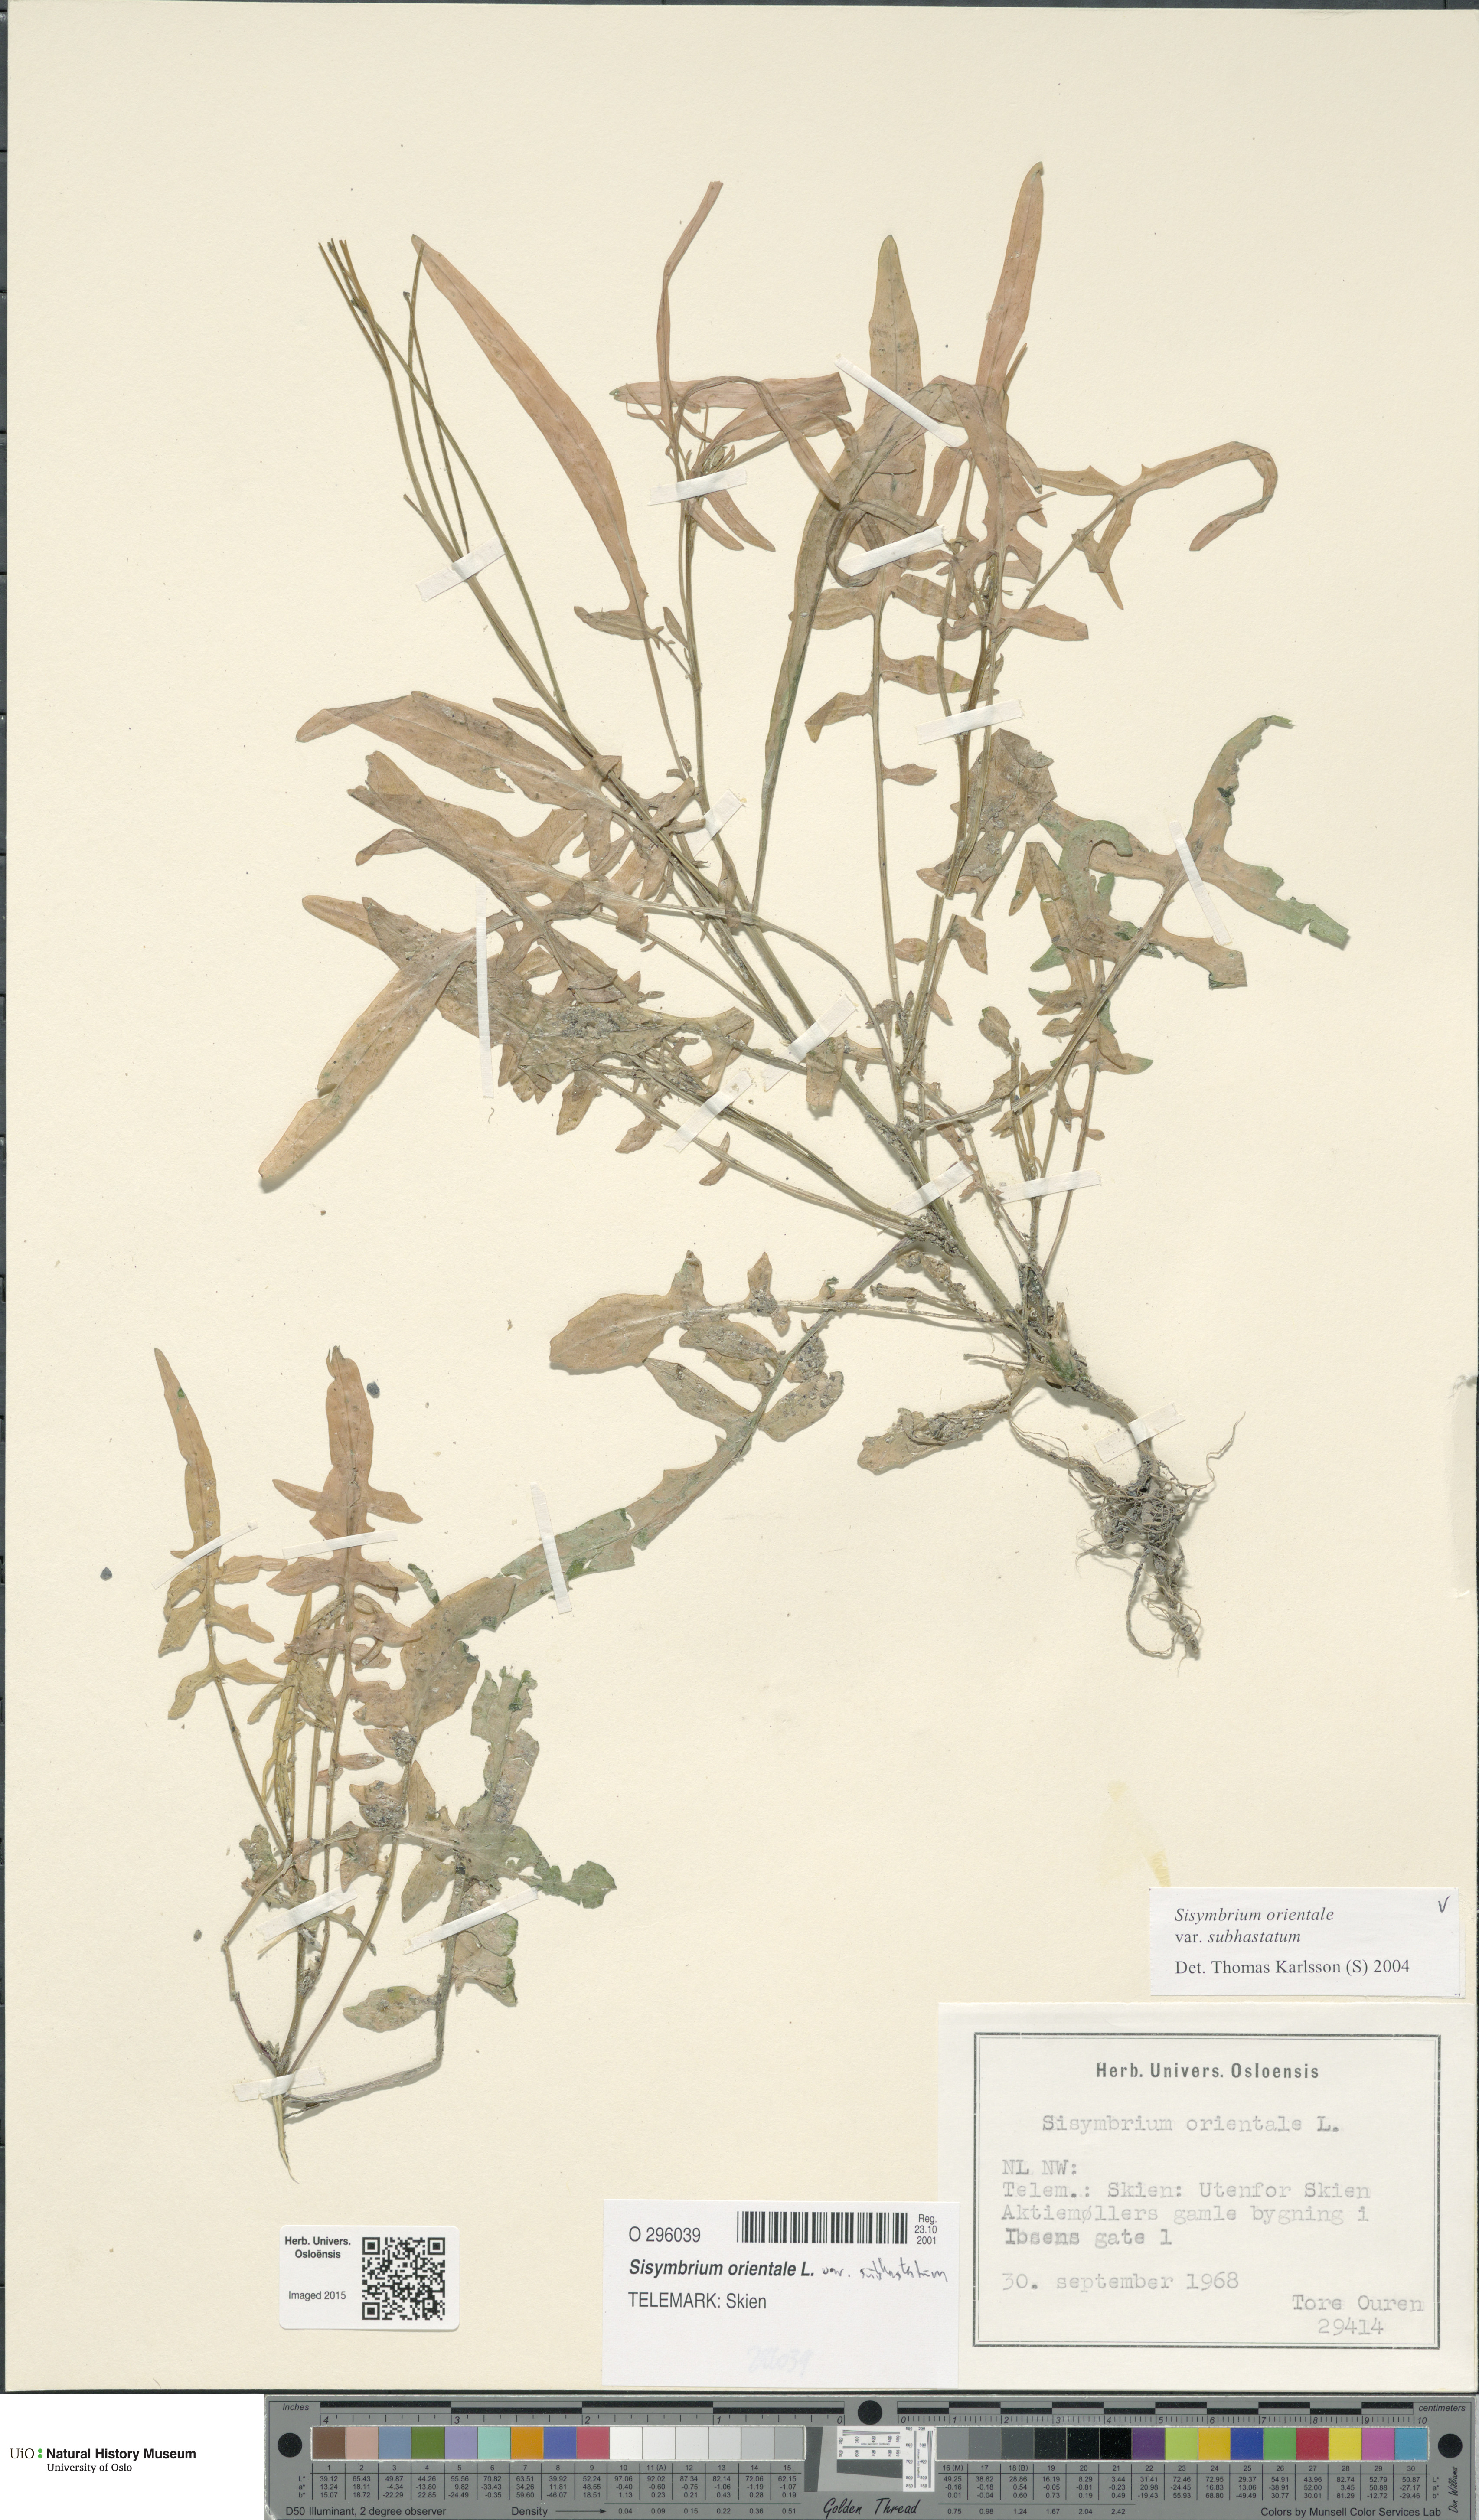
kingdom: Plantae
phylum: Tracheophyta
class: Magnoliopsida
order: Brassicales
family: Brassicaceae
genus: Sisymbrium
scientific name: Sisymbrium orientale
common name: Eastern rocket
